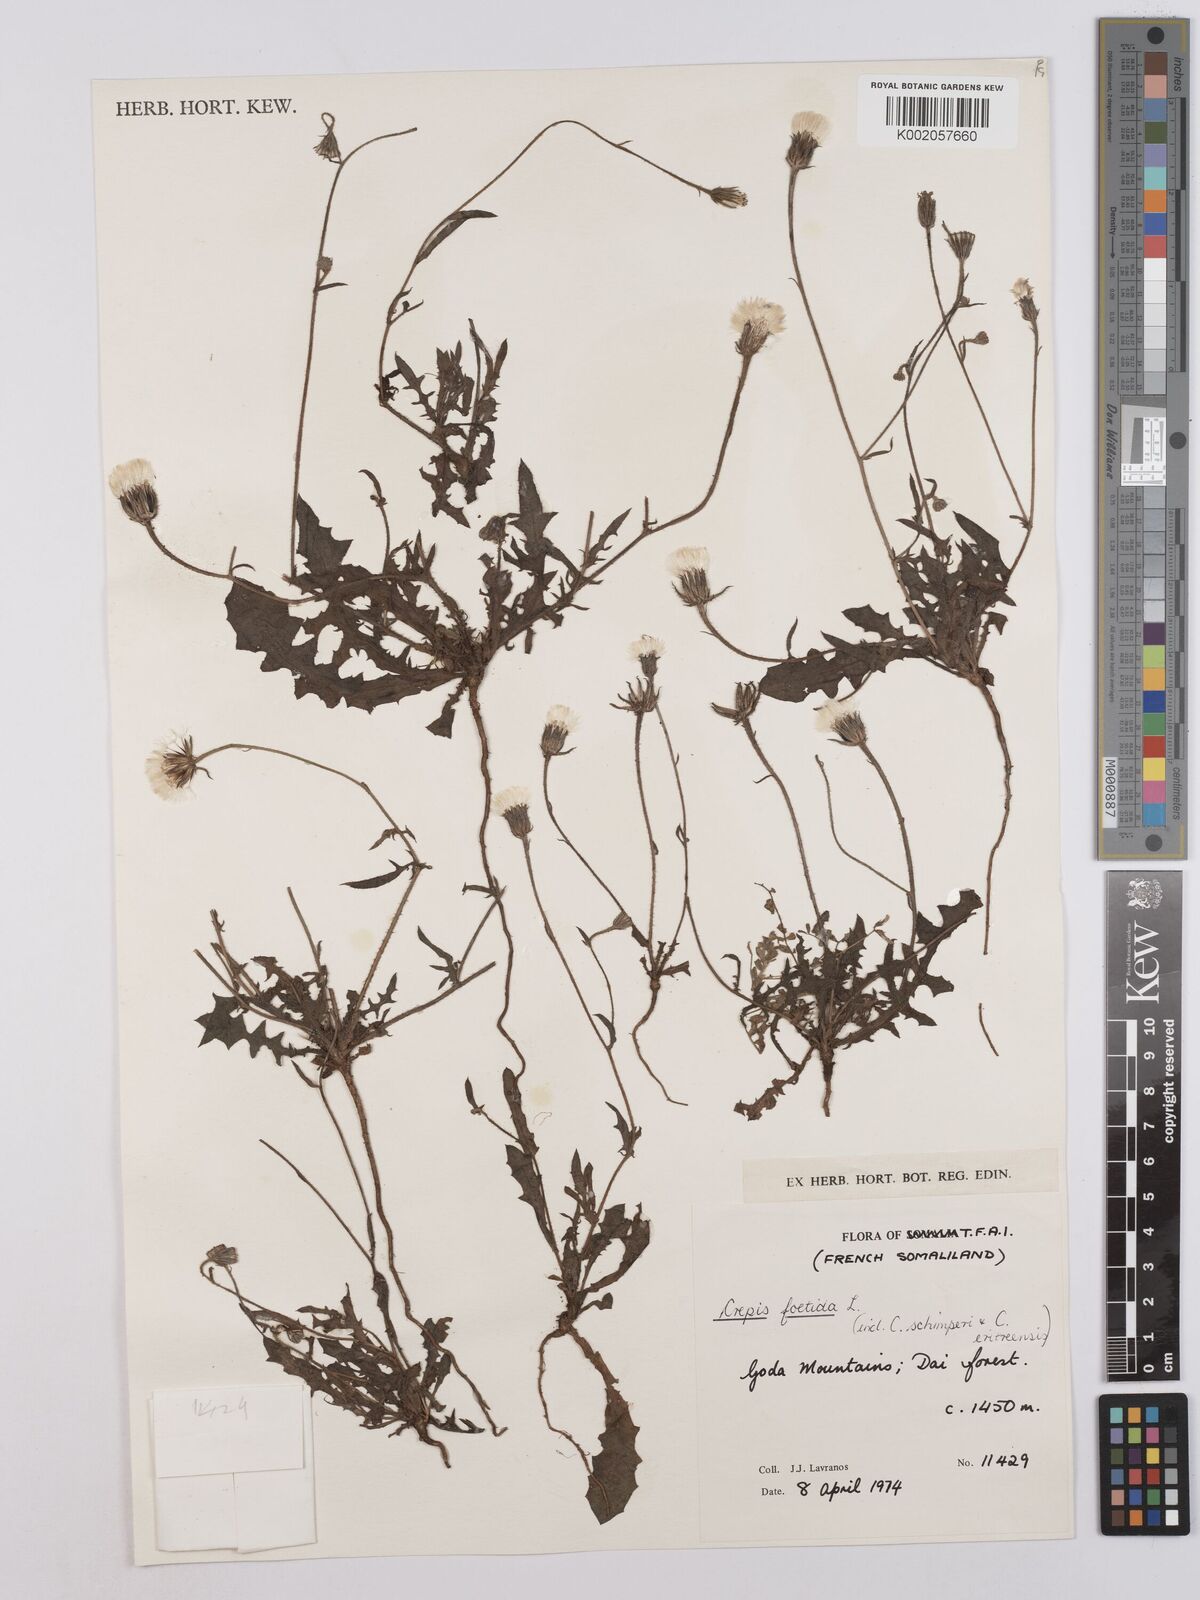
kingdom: Plantae
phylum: Tracheophyta
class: Magnoliopsida
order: Asterales
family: Asteraceae
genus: Crepis
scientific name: Crepis foetida
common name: Stinking hawk's-beard
